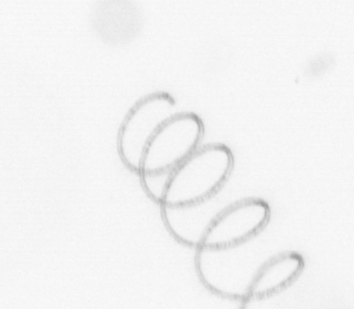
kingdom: Chromista
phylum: Ochrophyta
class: Bacillariophyceae
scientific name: Bacillariophyceae
